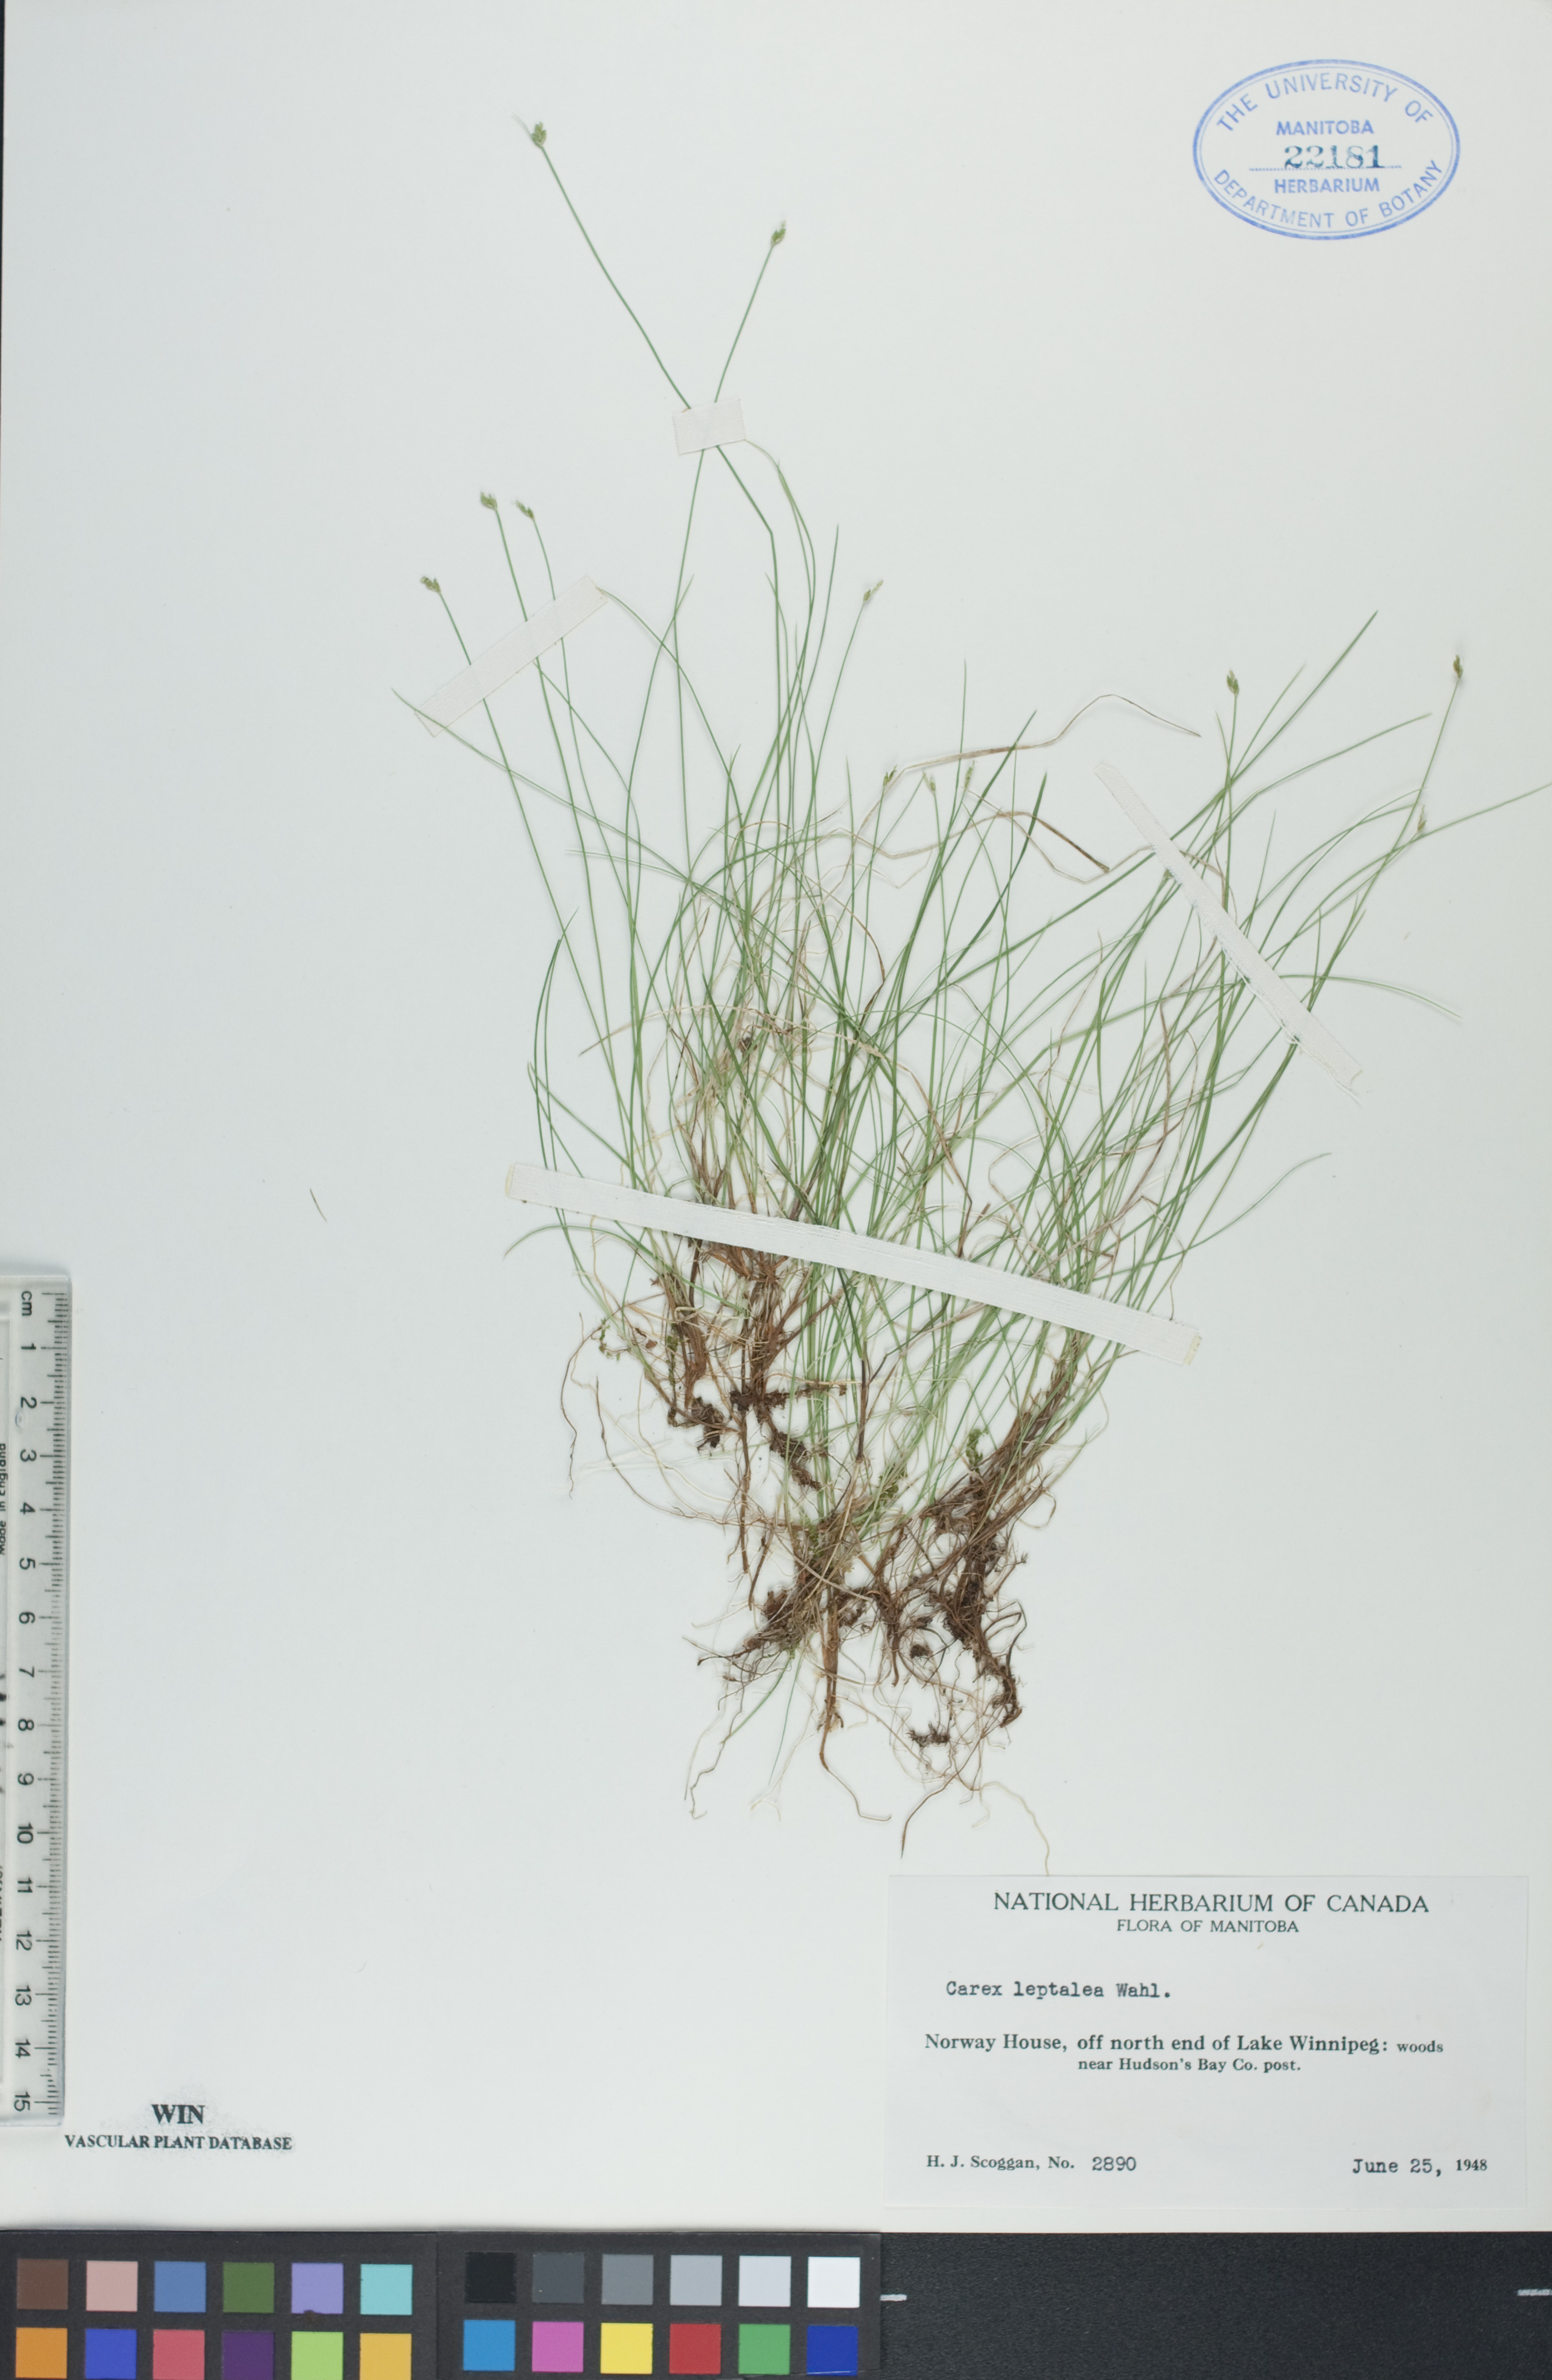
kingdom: Plantae
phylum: Tracheophyta
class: Liliopsida
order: Poales
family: Cyperaceae
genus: Carex
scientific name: Carex leptalea
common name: Bristly-stalked sedge
